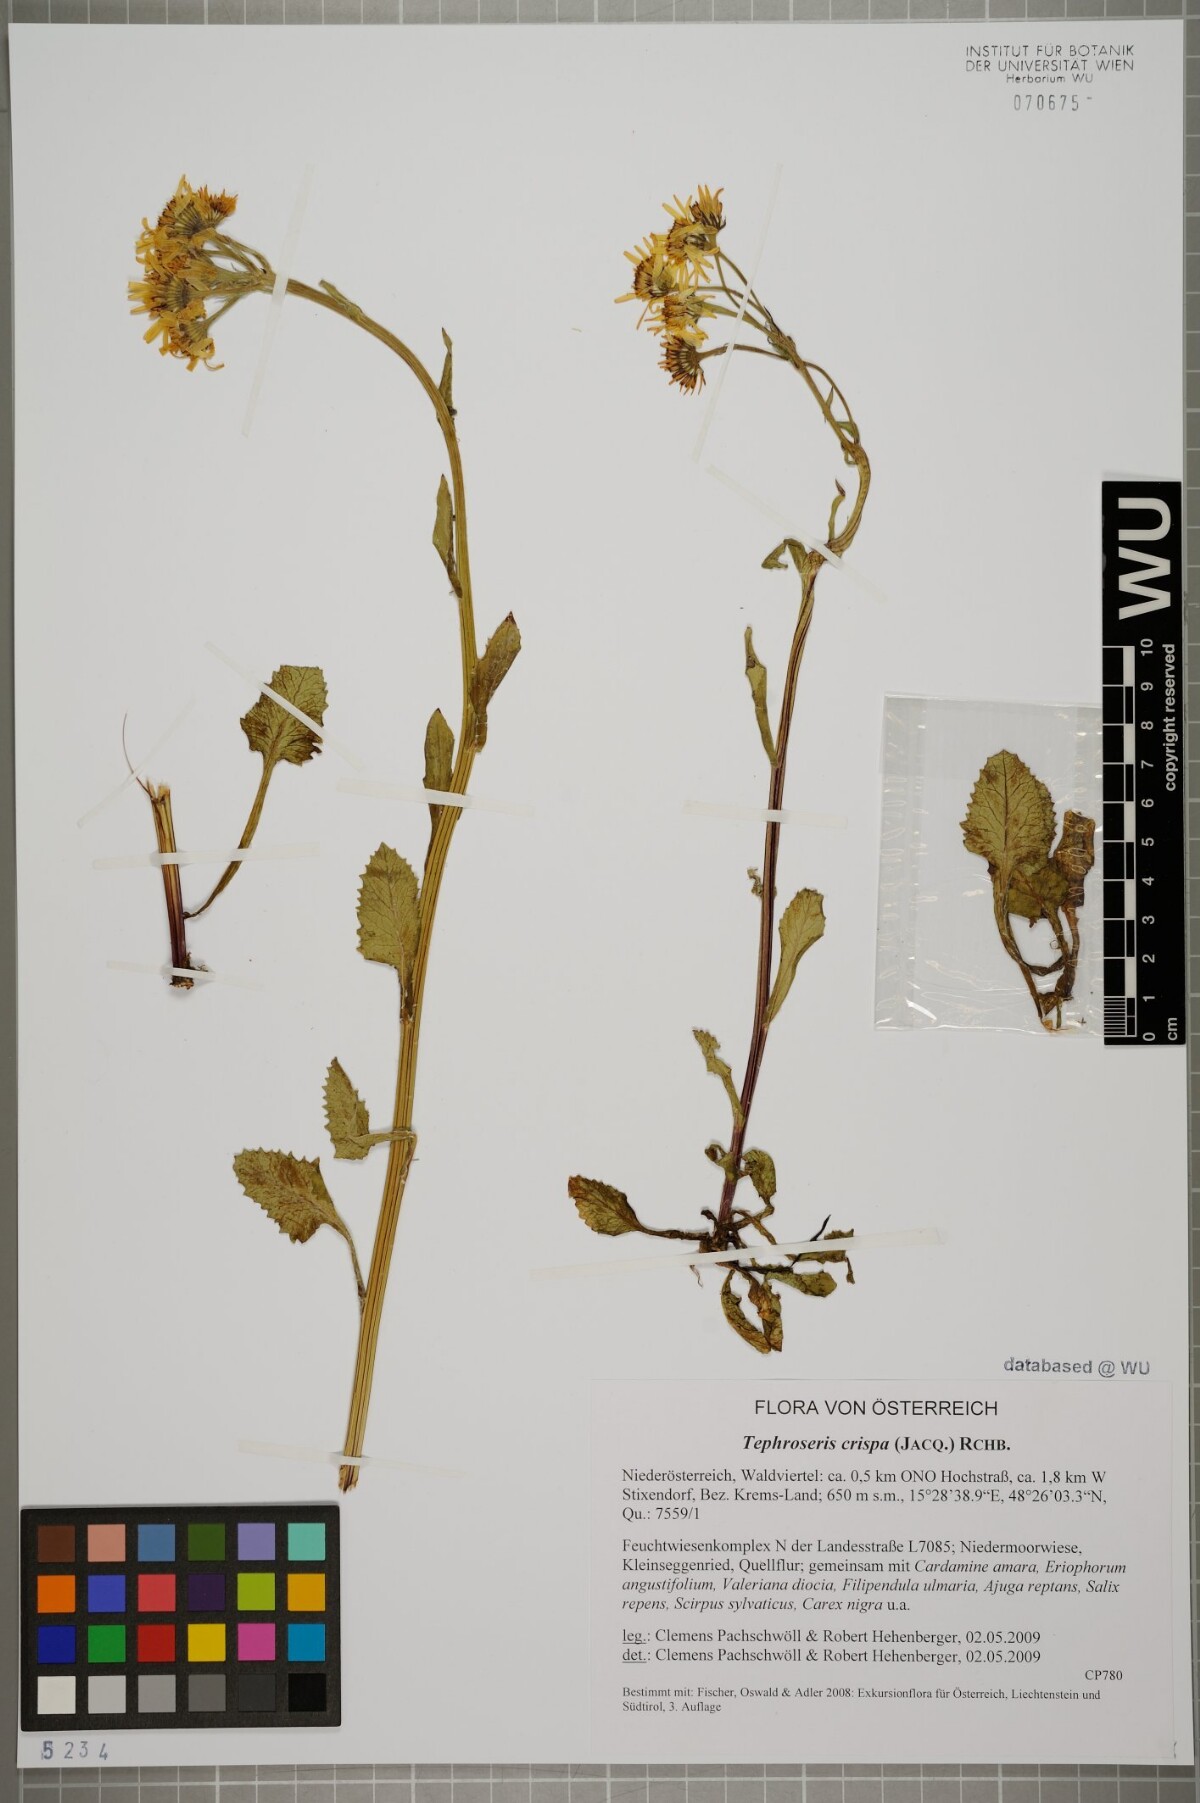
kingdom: Plantae
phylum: Tracheophyta
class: Magnoliopsida
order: Asterales
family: Asteraceae
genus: Tephroseris
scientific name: Tephroseris crispa
